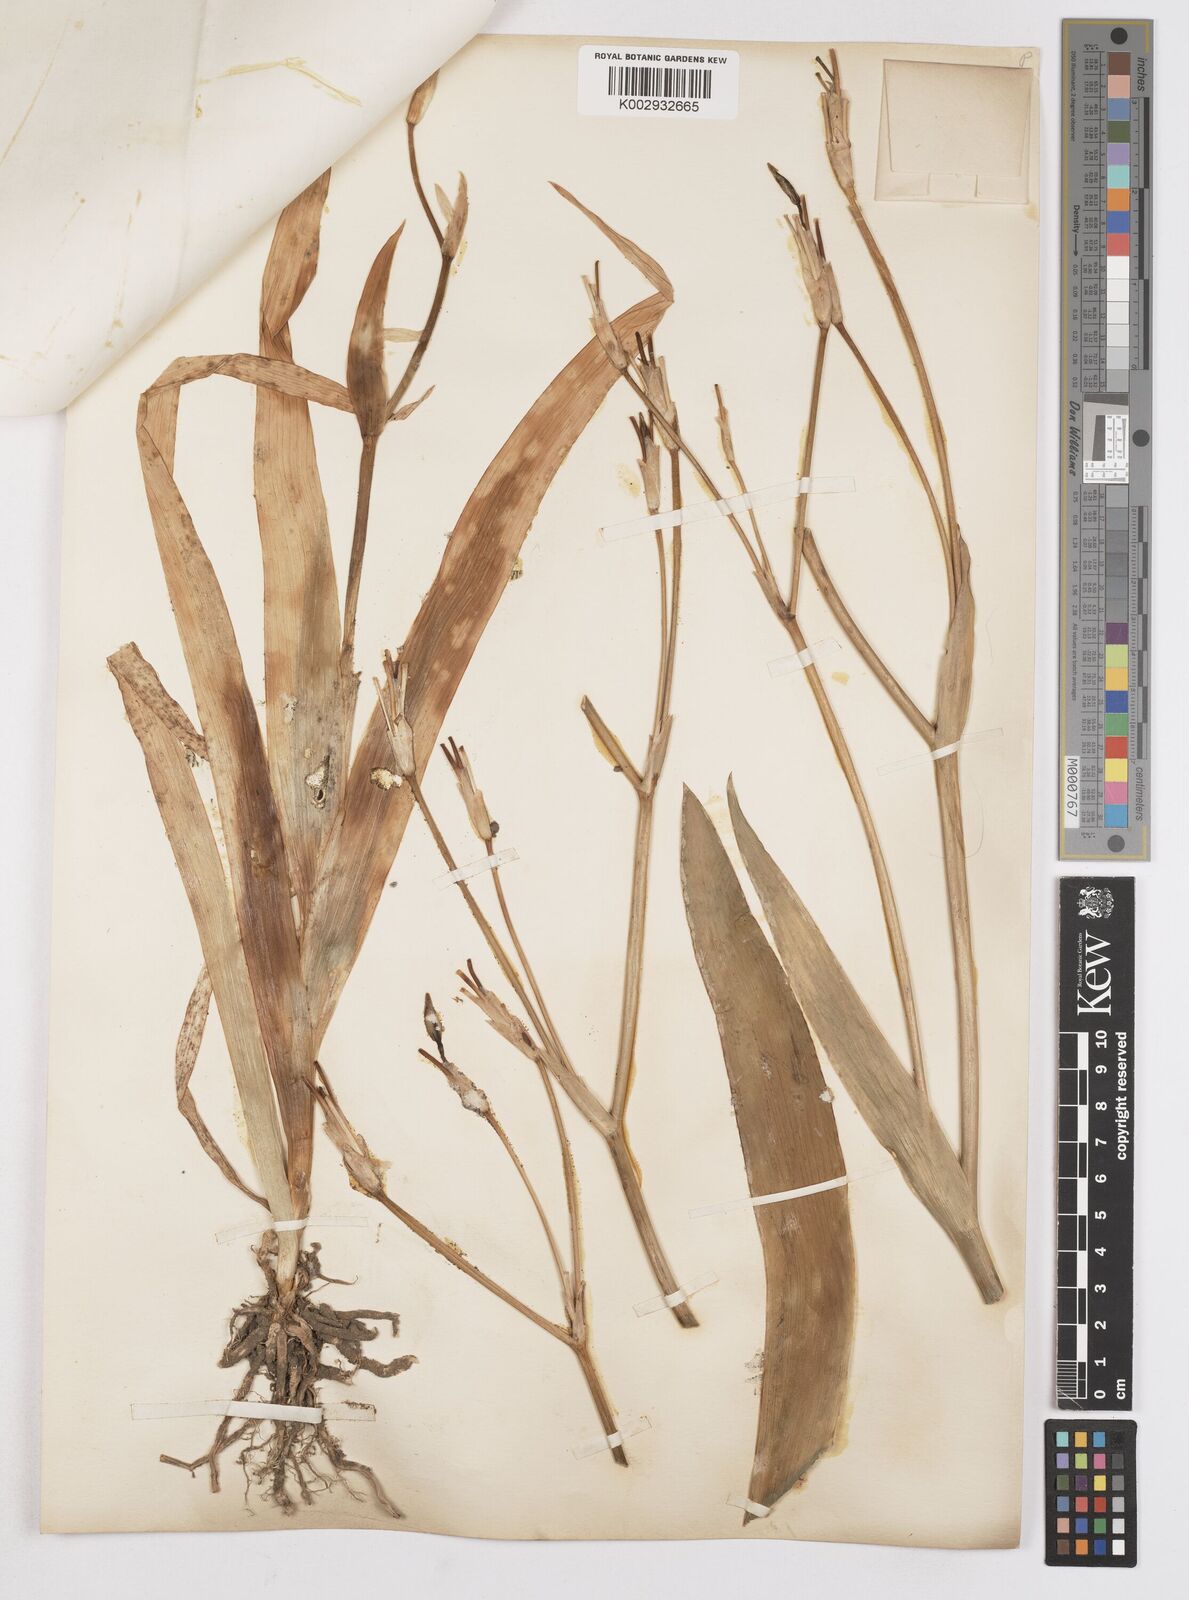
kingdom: Plantae
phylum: Tracheophyta
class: Liliopsida
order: Asparagales
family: Iridaceae
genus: Iris
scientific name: Iris
